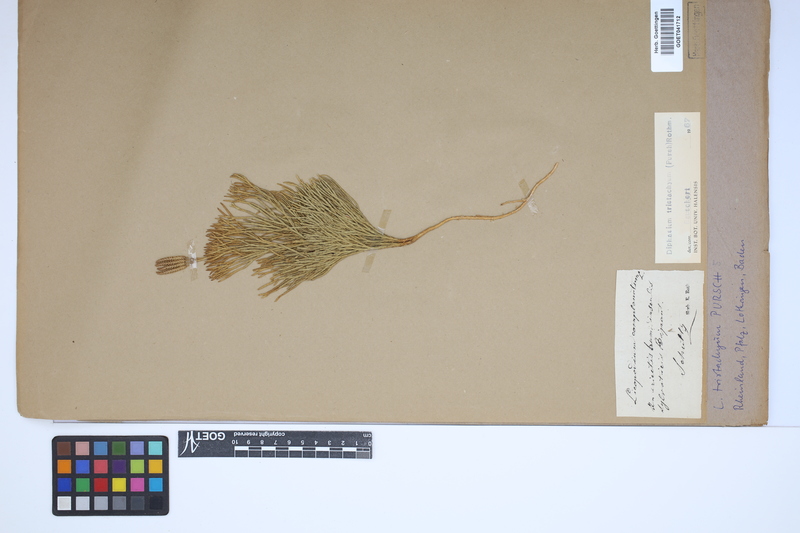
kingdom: Plantae
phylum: Tracheophyta
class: Lycopodiopsida
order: Lycopodiales
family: Lycopodiaceae
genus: Diphasiastrum
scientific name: Diphasiastrum tristachyum
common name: Blue ground-cedar
